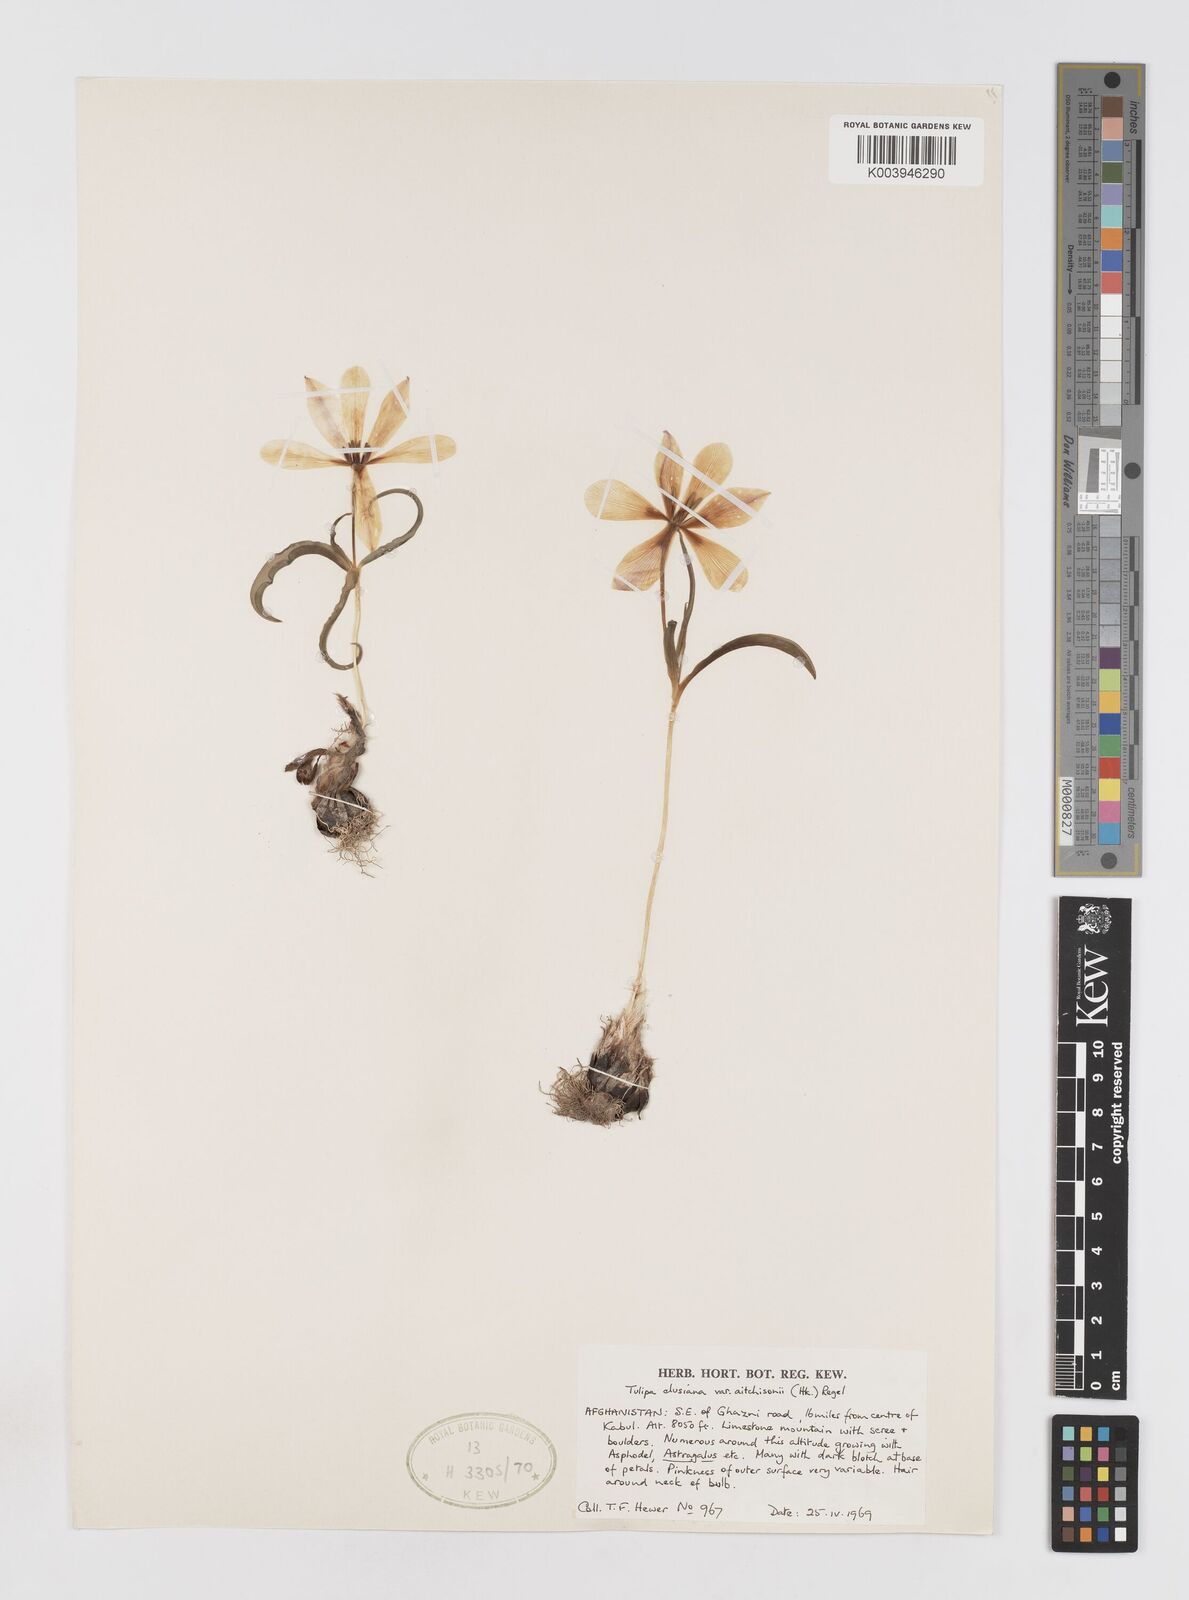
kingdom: Plantae
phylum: Tracheophyta
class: Liliopsida
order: Liliales
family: Liliaceae
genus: Tulipa
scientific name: Tulipa clusiana
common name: Lady tulip
